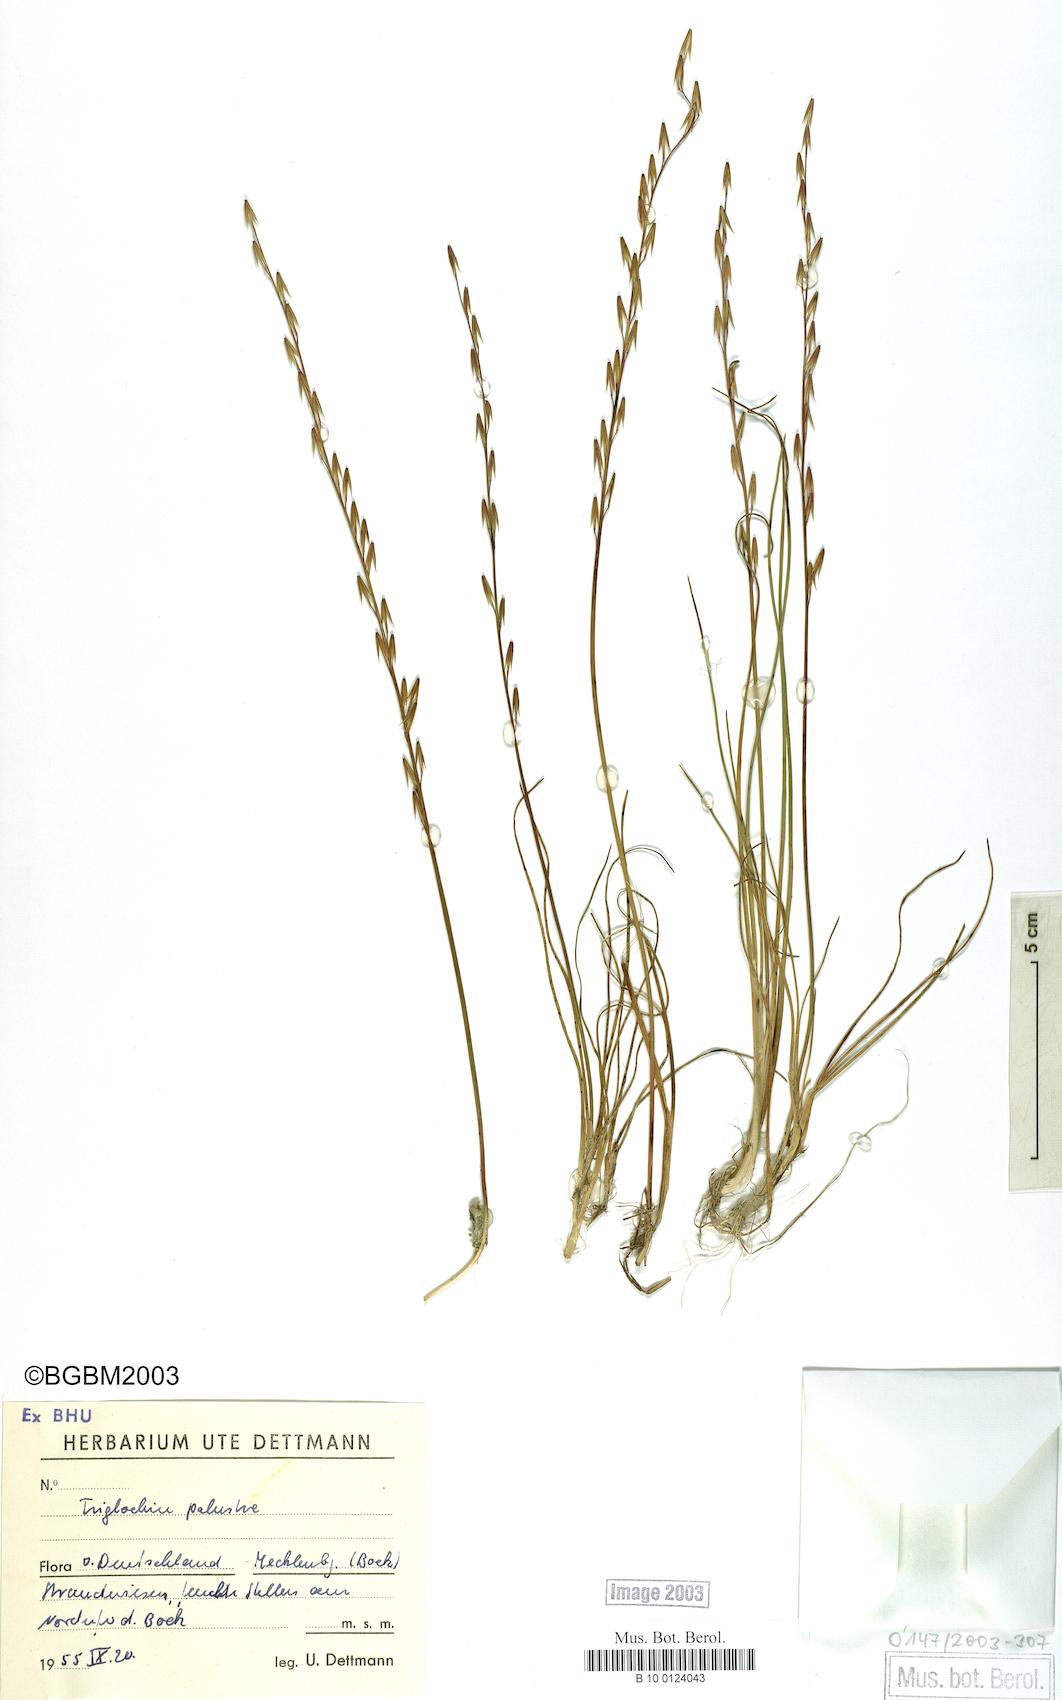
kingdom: Plantae
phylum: Tracheophyta
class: Liliopsida
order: Alismatales
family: Juncaginaceae
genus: Triglochin
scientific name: Triglochin palustris
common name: Marsh arrowgrass
